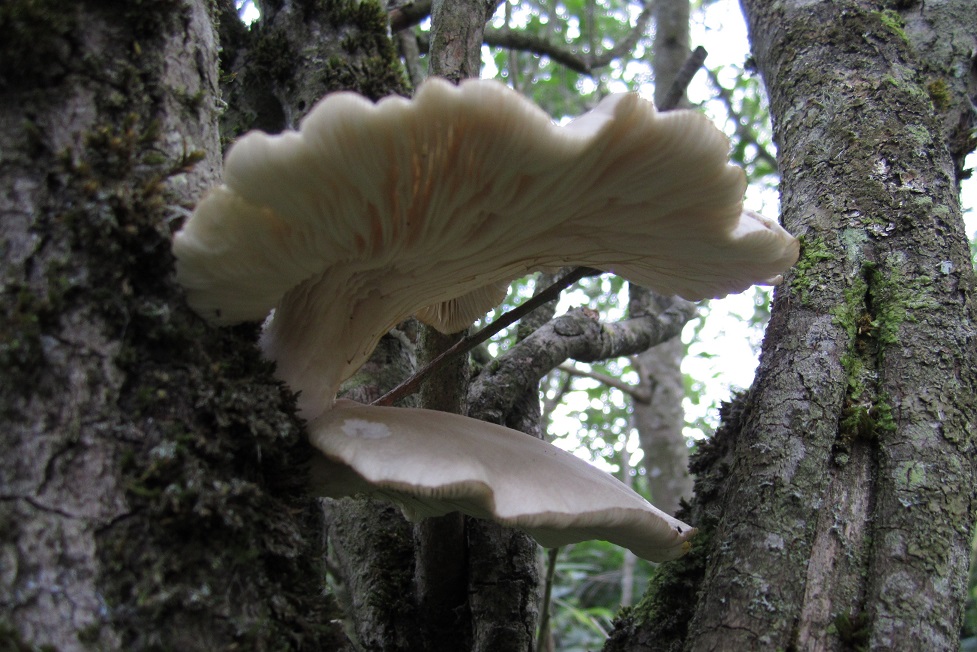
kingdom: Fungi
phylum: Basidiomycota
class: Agaricomycetes
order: Agaricales
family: Pleurotaceae
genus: Pleurotus
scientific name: Pleurotus pulmonarius
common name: sommer-østershat
